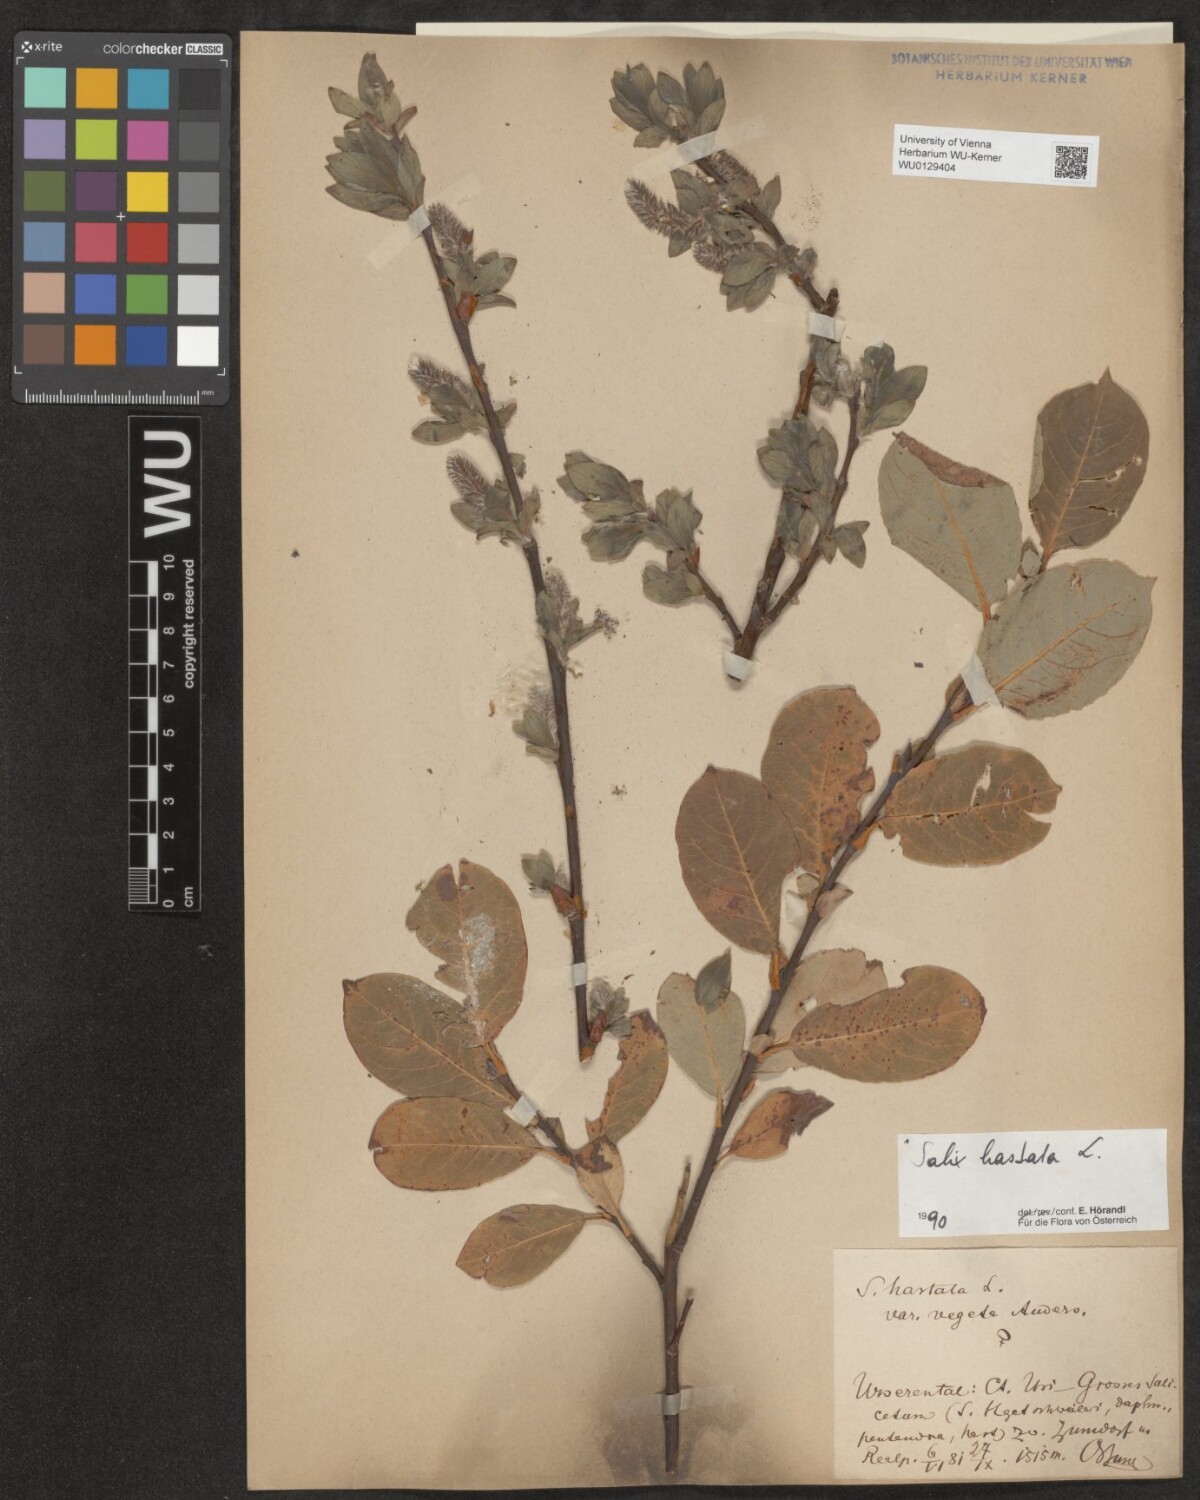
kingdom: Plantae
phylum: Tracheophyta
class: Magnoliopsida
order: Malpighiales
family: Salicaceae
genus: Salix
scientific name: Salix hastata
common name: Halberd willow
